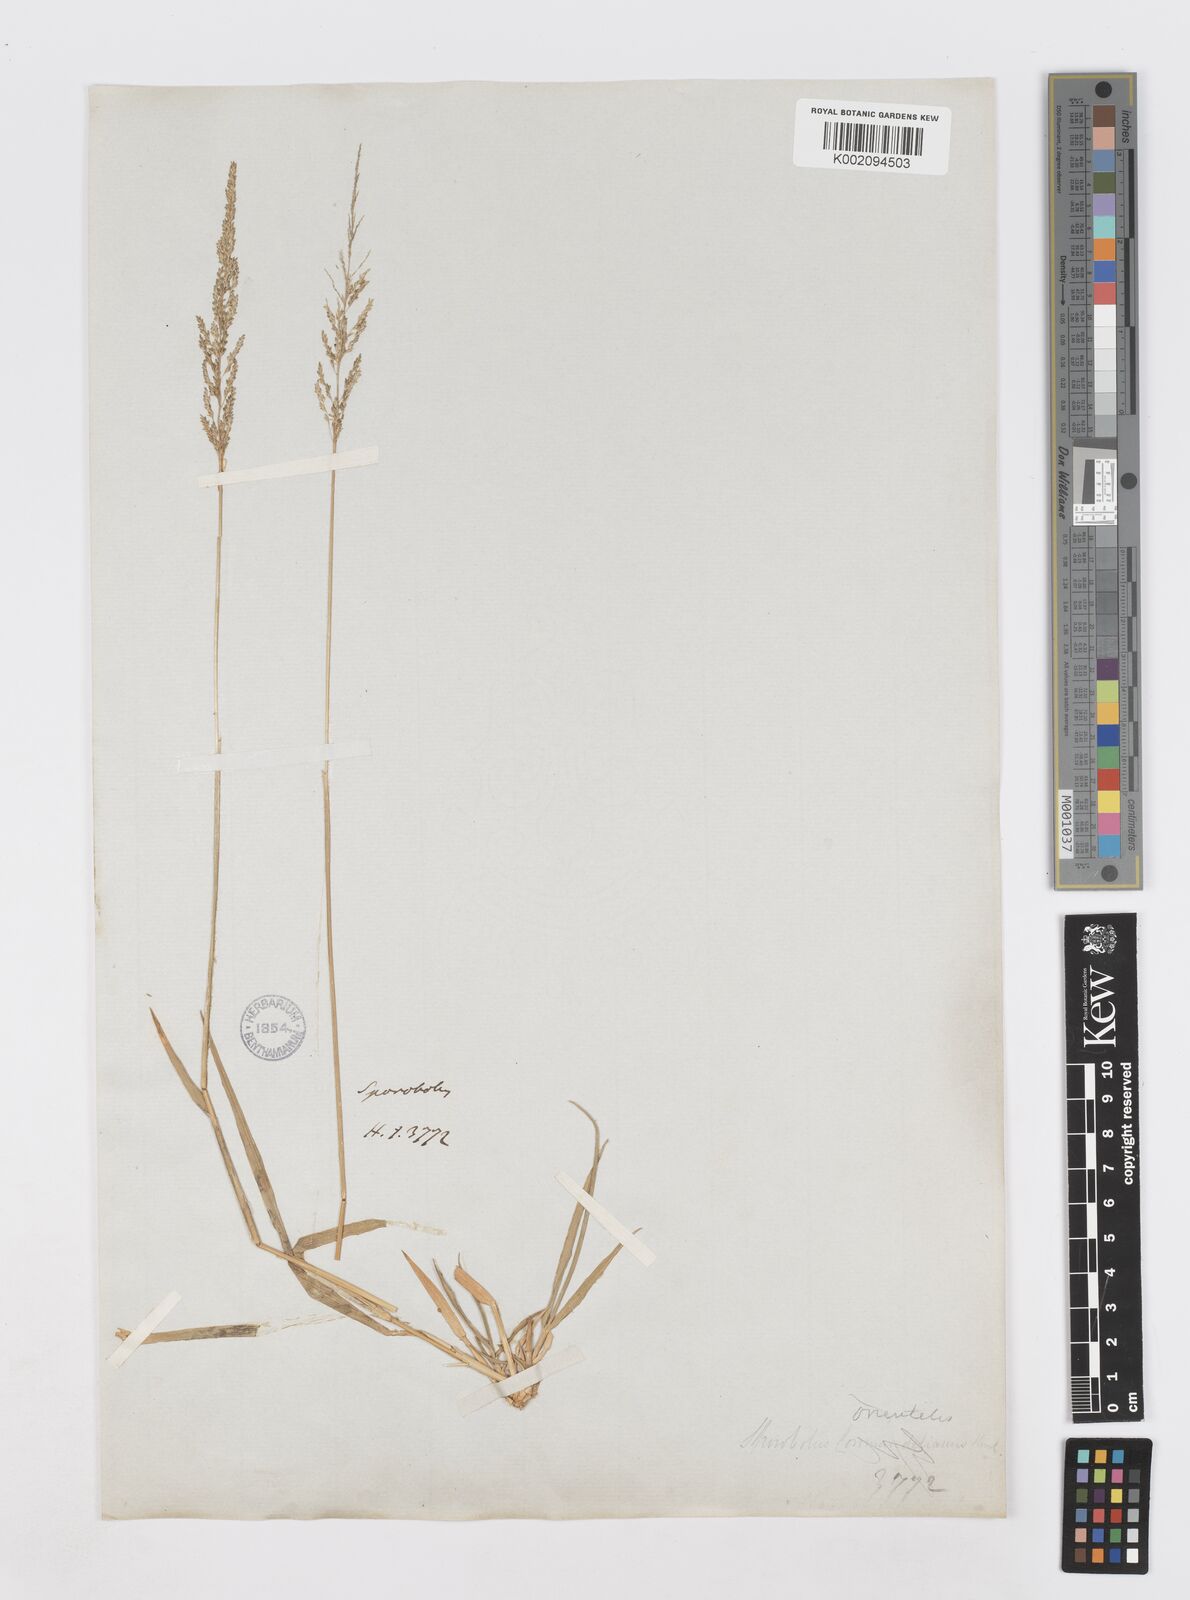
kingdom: Plantae
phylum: Tracheophyta
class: Liliopsida
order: Poales
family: Poaceae
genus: Sporobolus
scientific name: Sporobolus maderaspatanus
